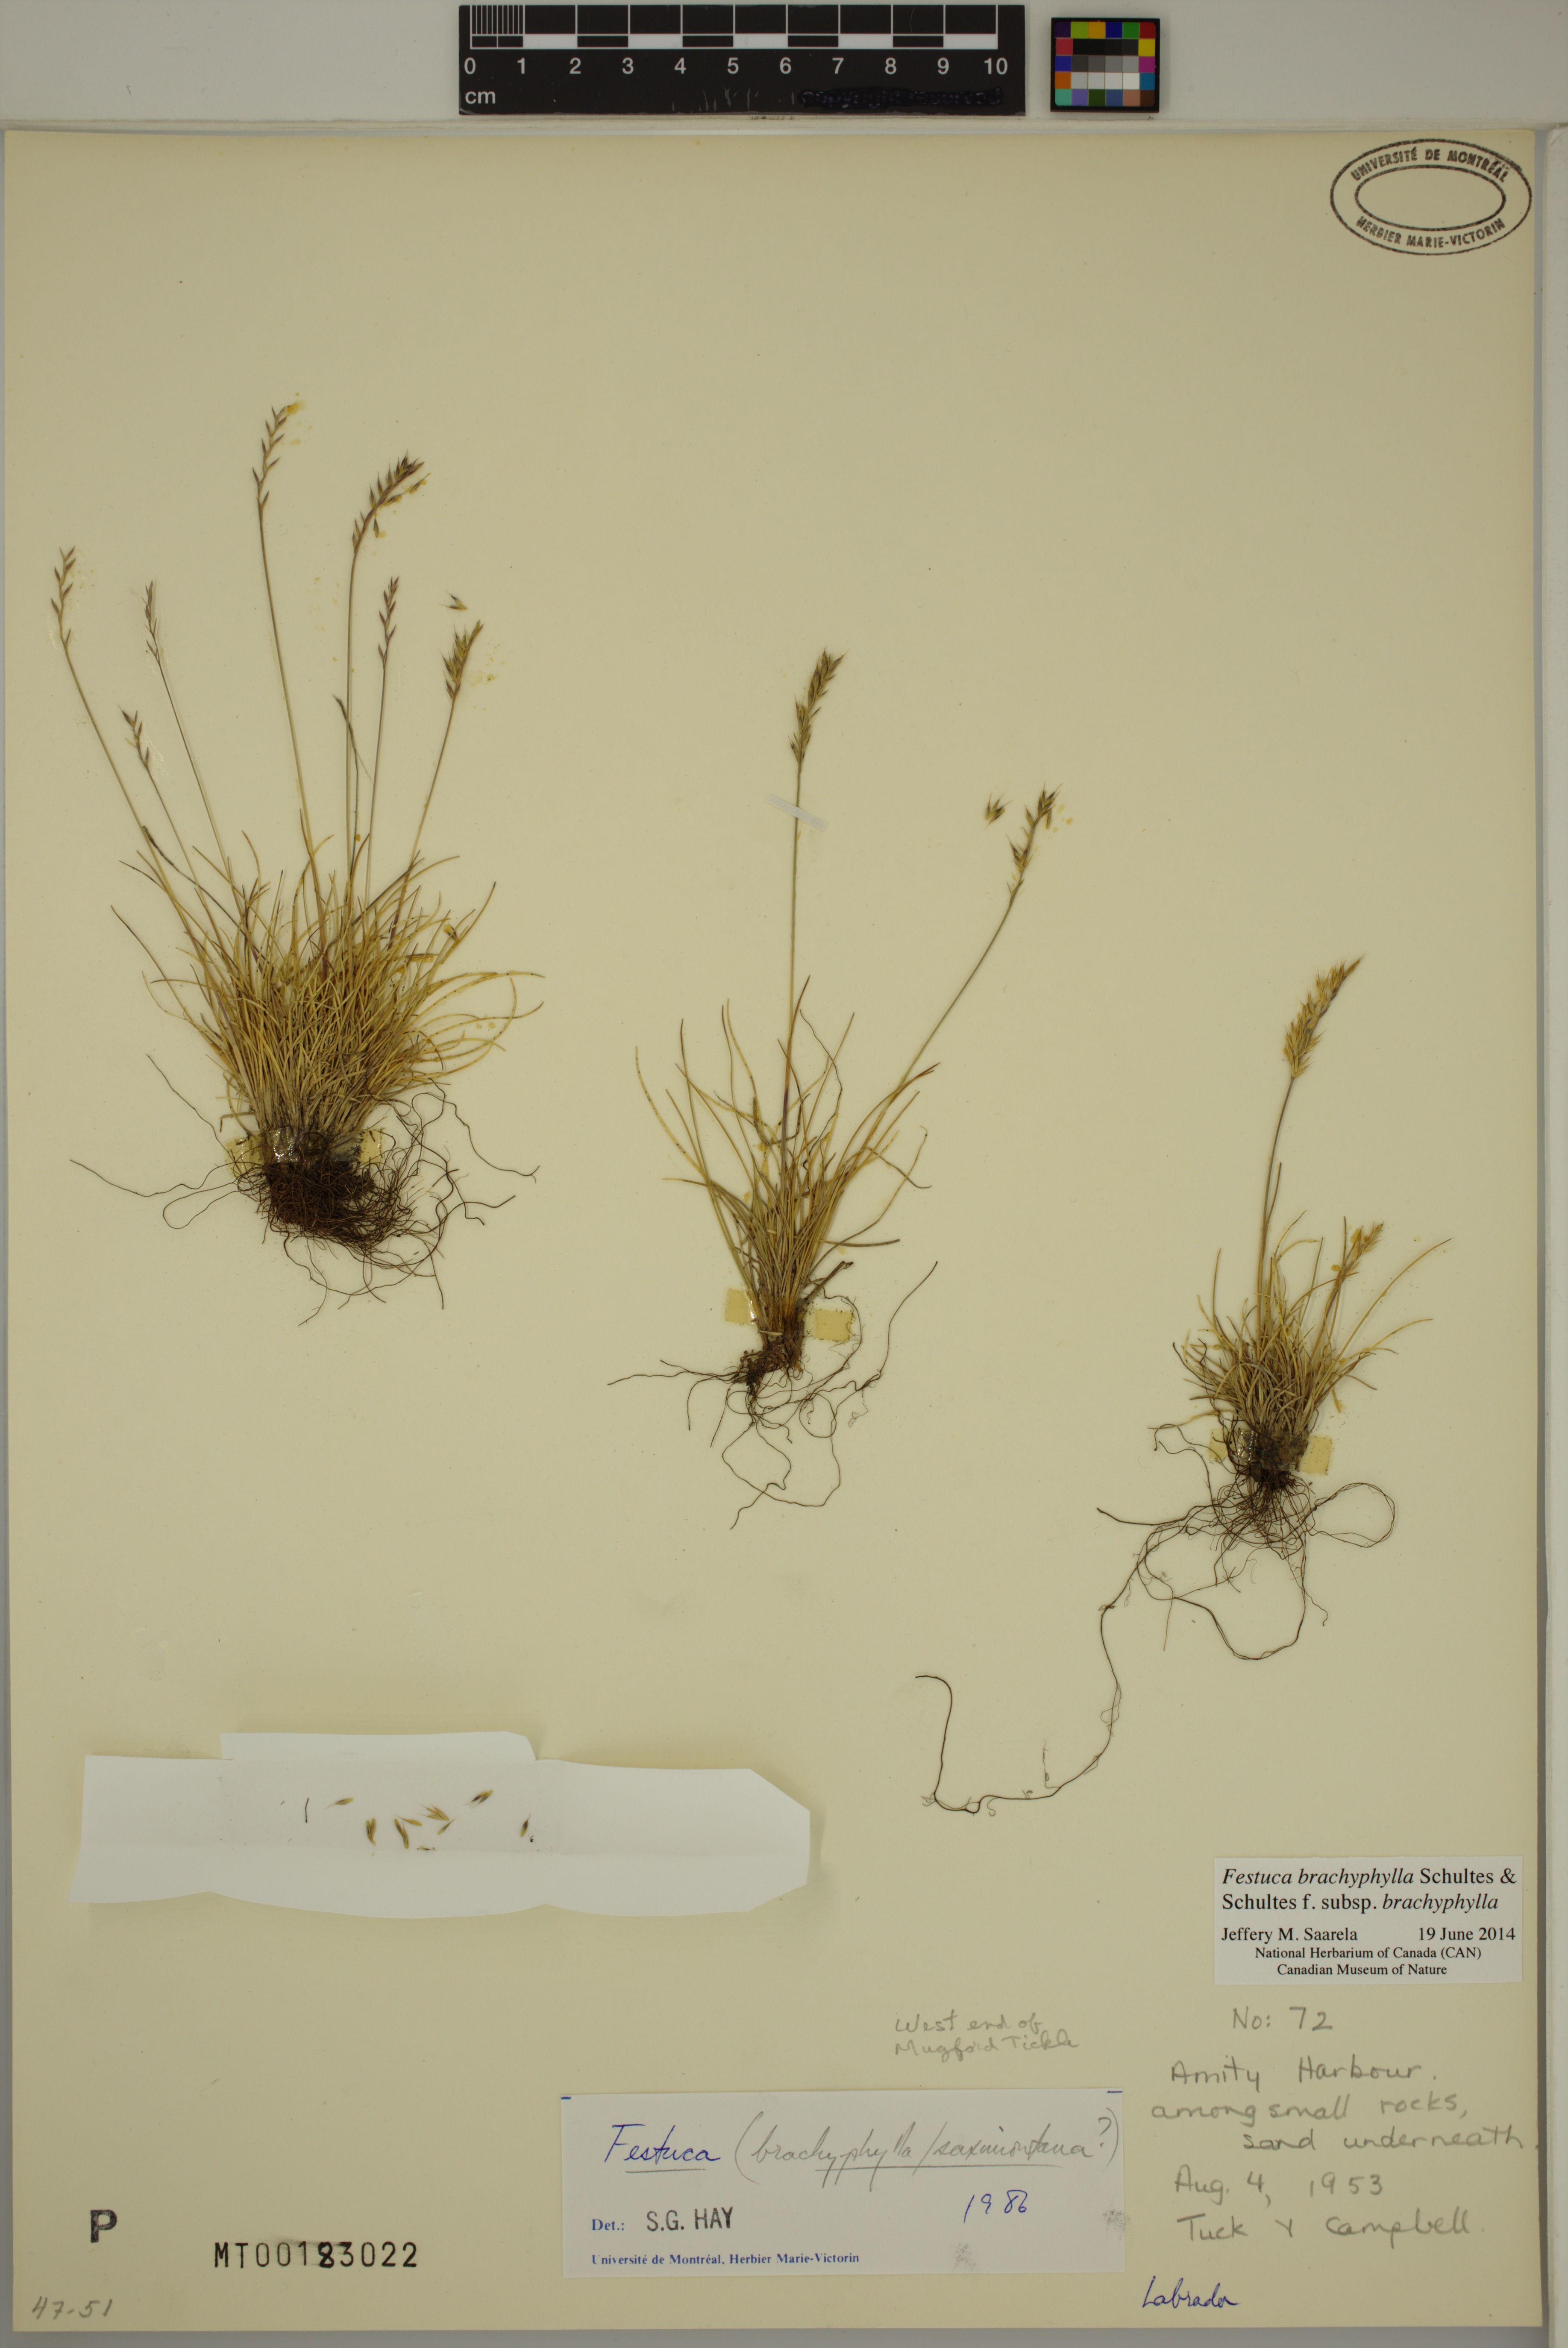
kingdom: Plantae
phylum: Tracheophyta
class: Liliopsida
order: Poales
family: Poaceae
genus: Festuca
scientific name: Festuca brachyphylla
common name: Alpine fescue
